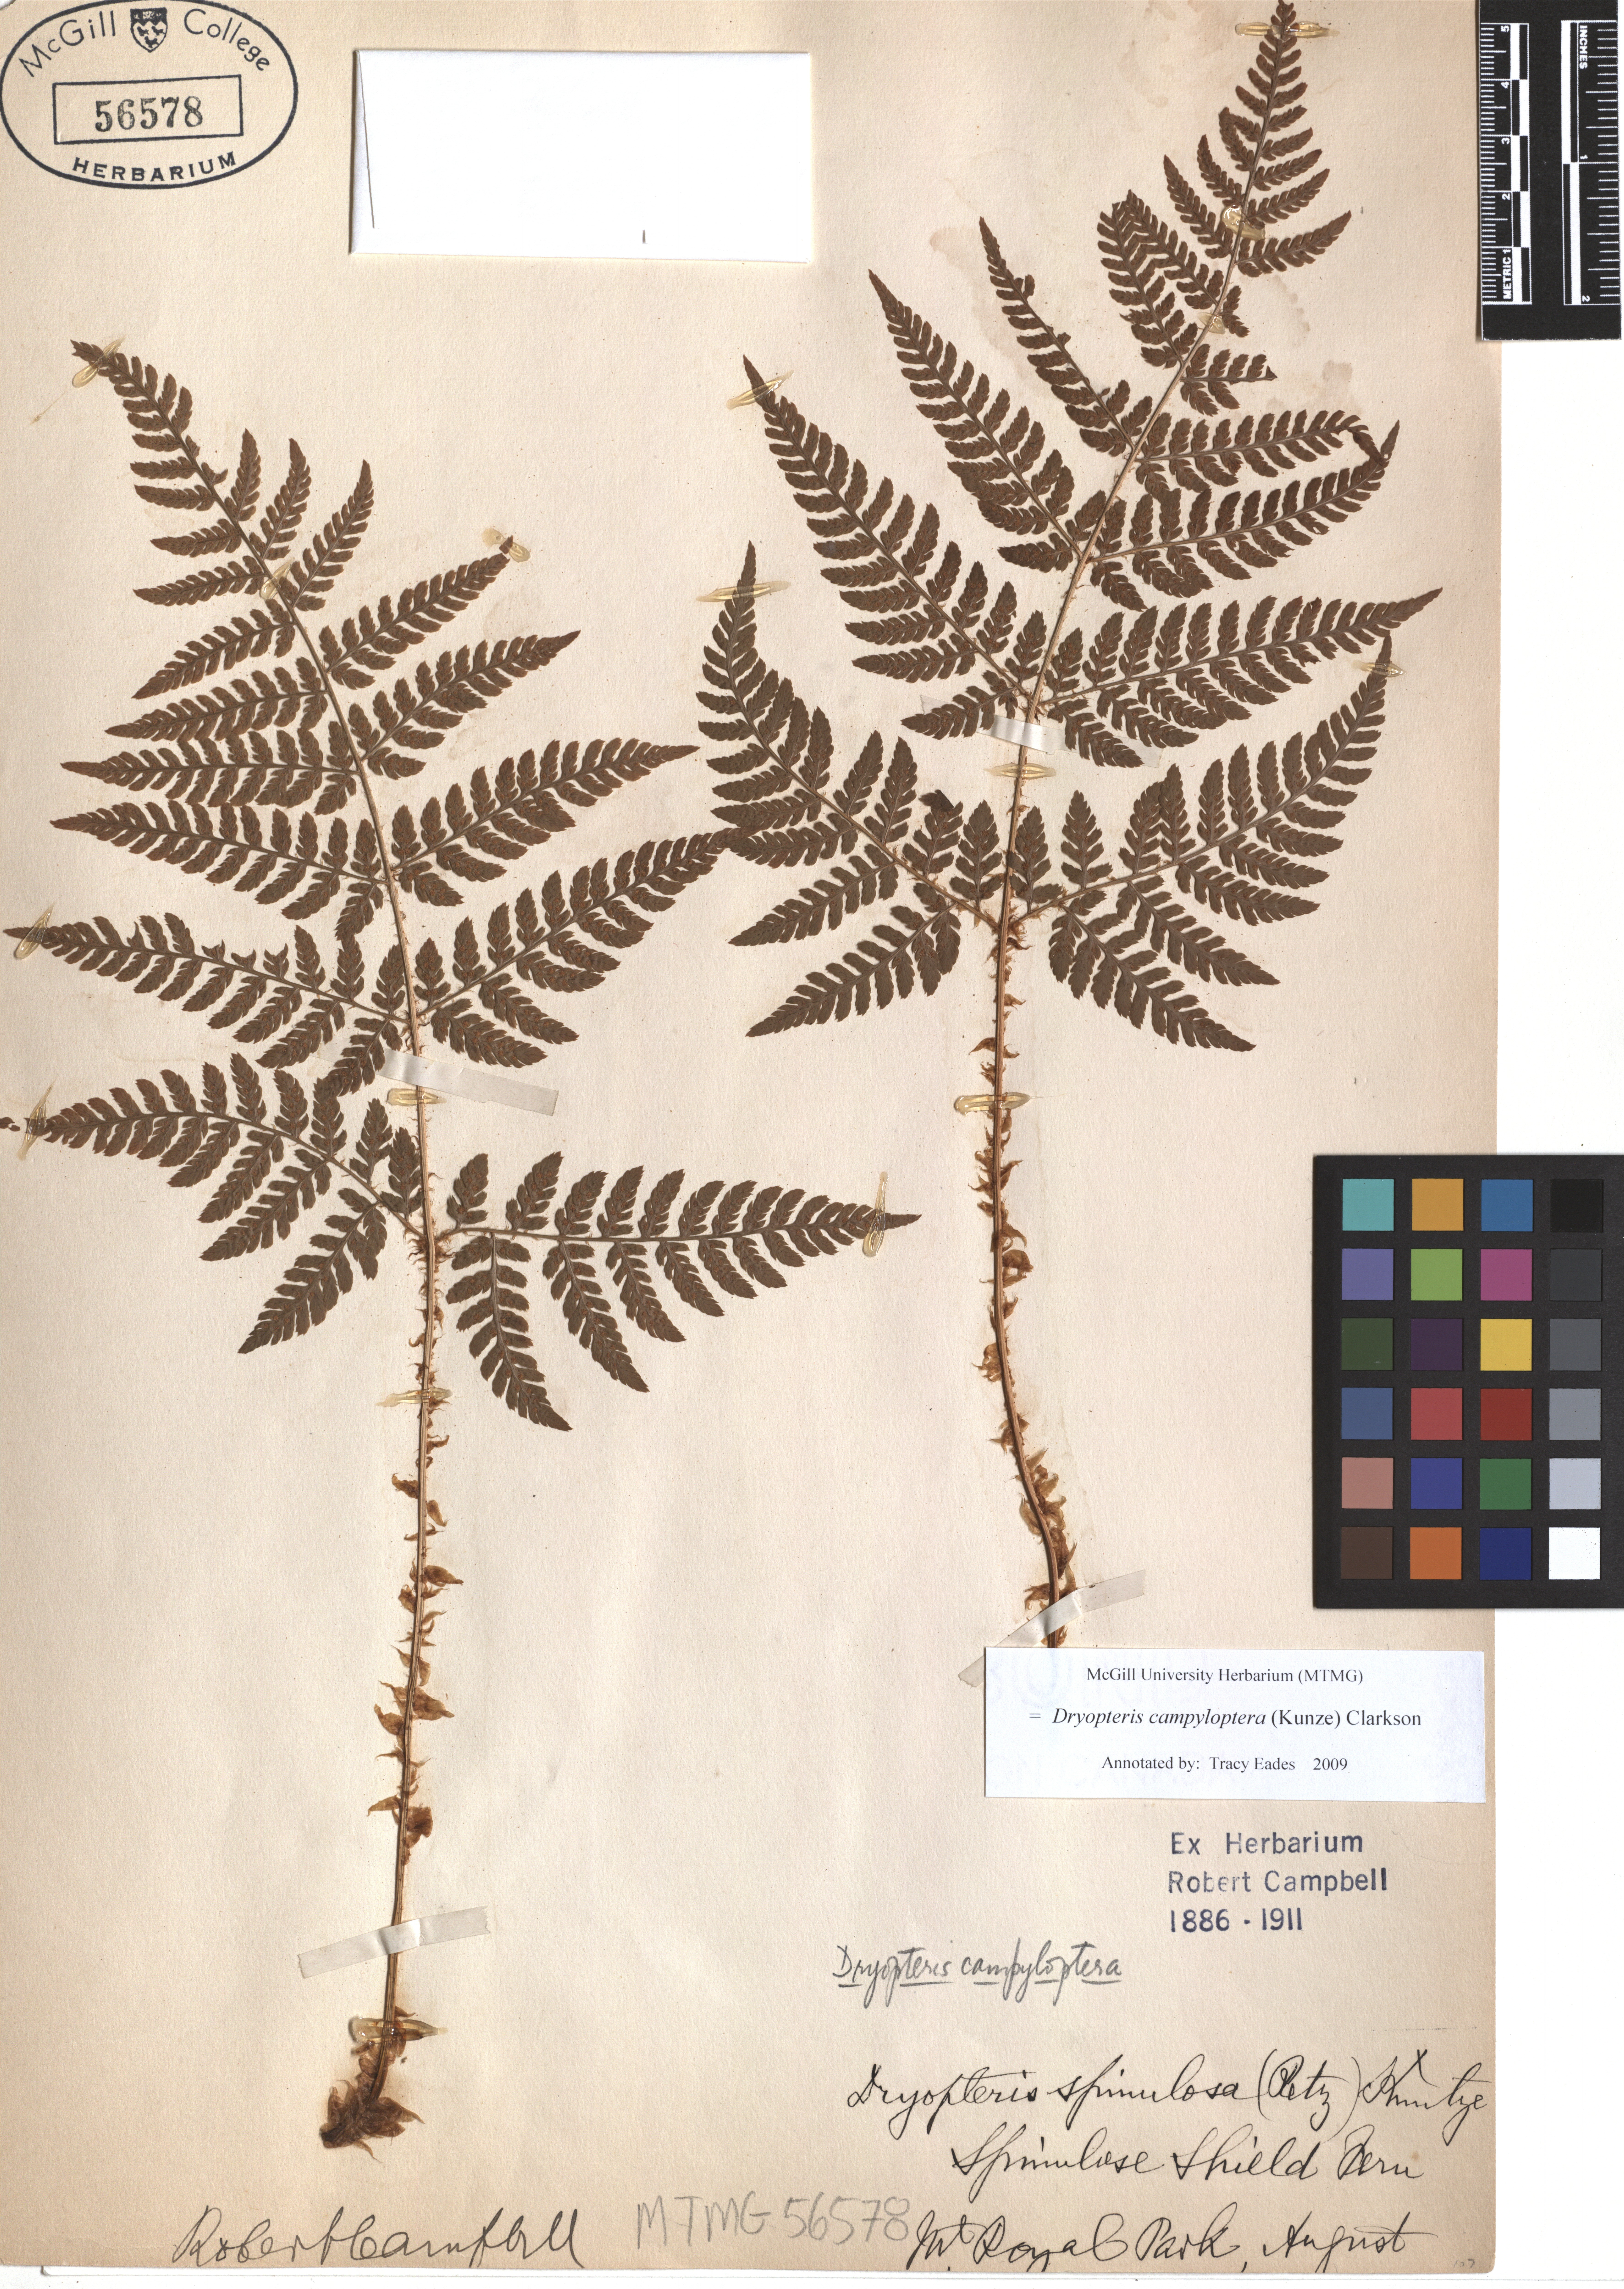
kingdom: Plantae
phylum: Tracheophyta
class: Polypodiopsida
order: Polypodiales
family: Dryopteridaceae
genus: Dryopteris
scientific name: Dryopteris campyloptera
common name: Mountain wood fern
